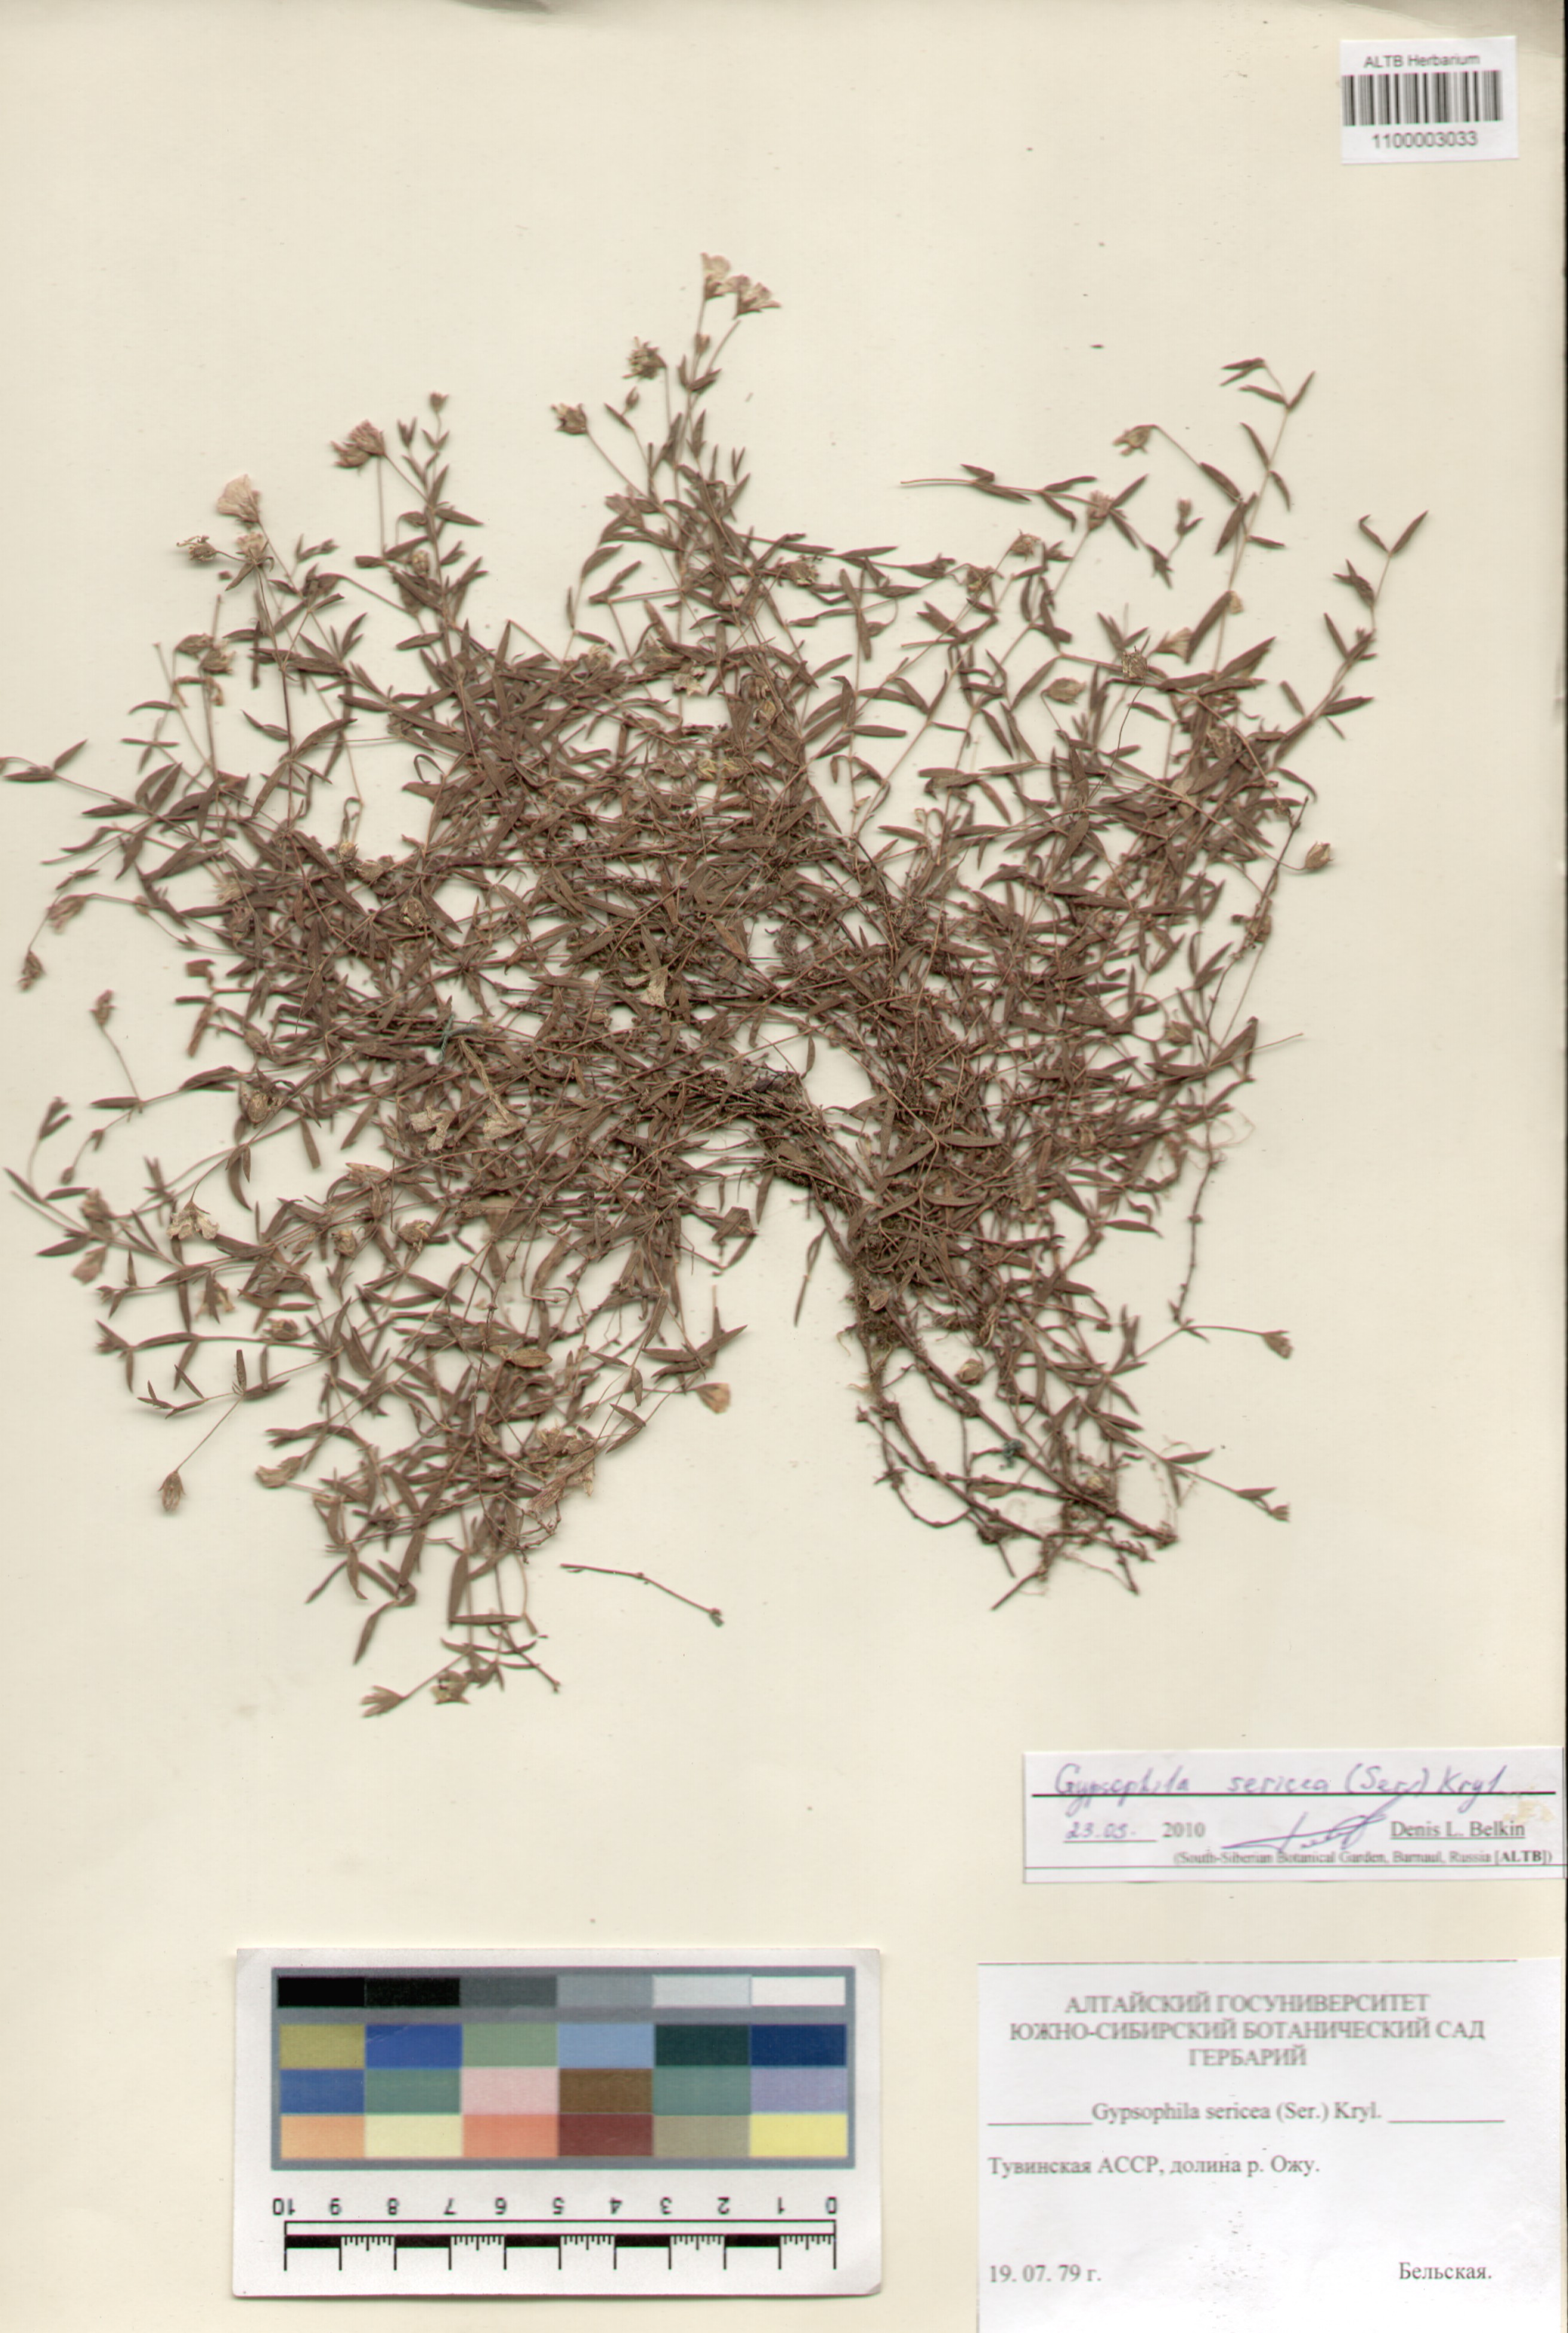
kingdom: Plantae
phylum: Tracheophyta
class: Magnoliopsida
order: Caryophyllales
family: Caryophyllaceae
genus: Heterochroa
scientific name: Heterochroa petraea
